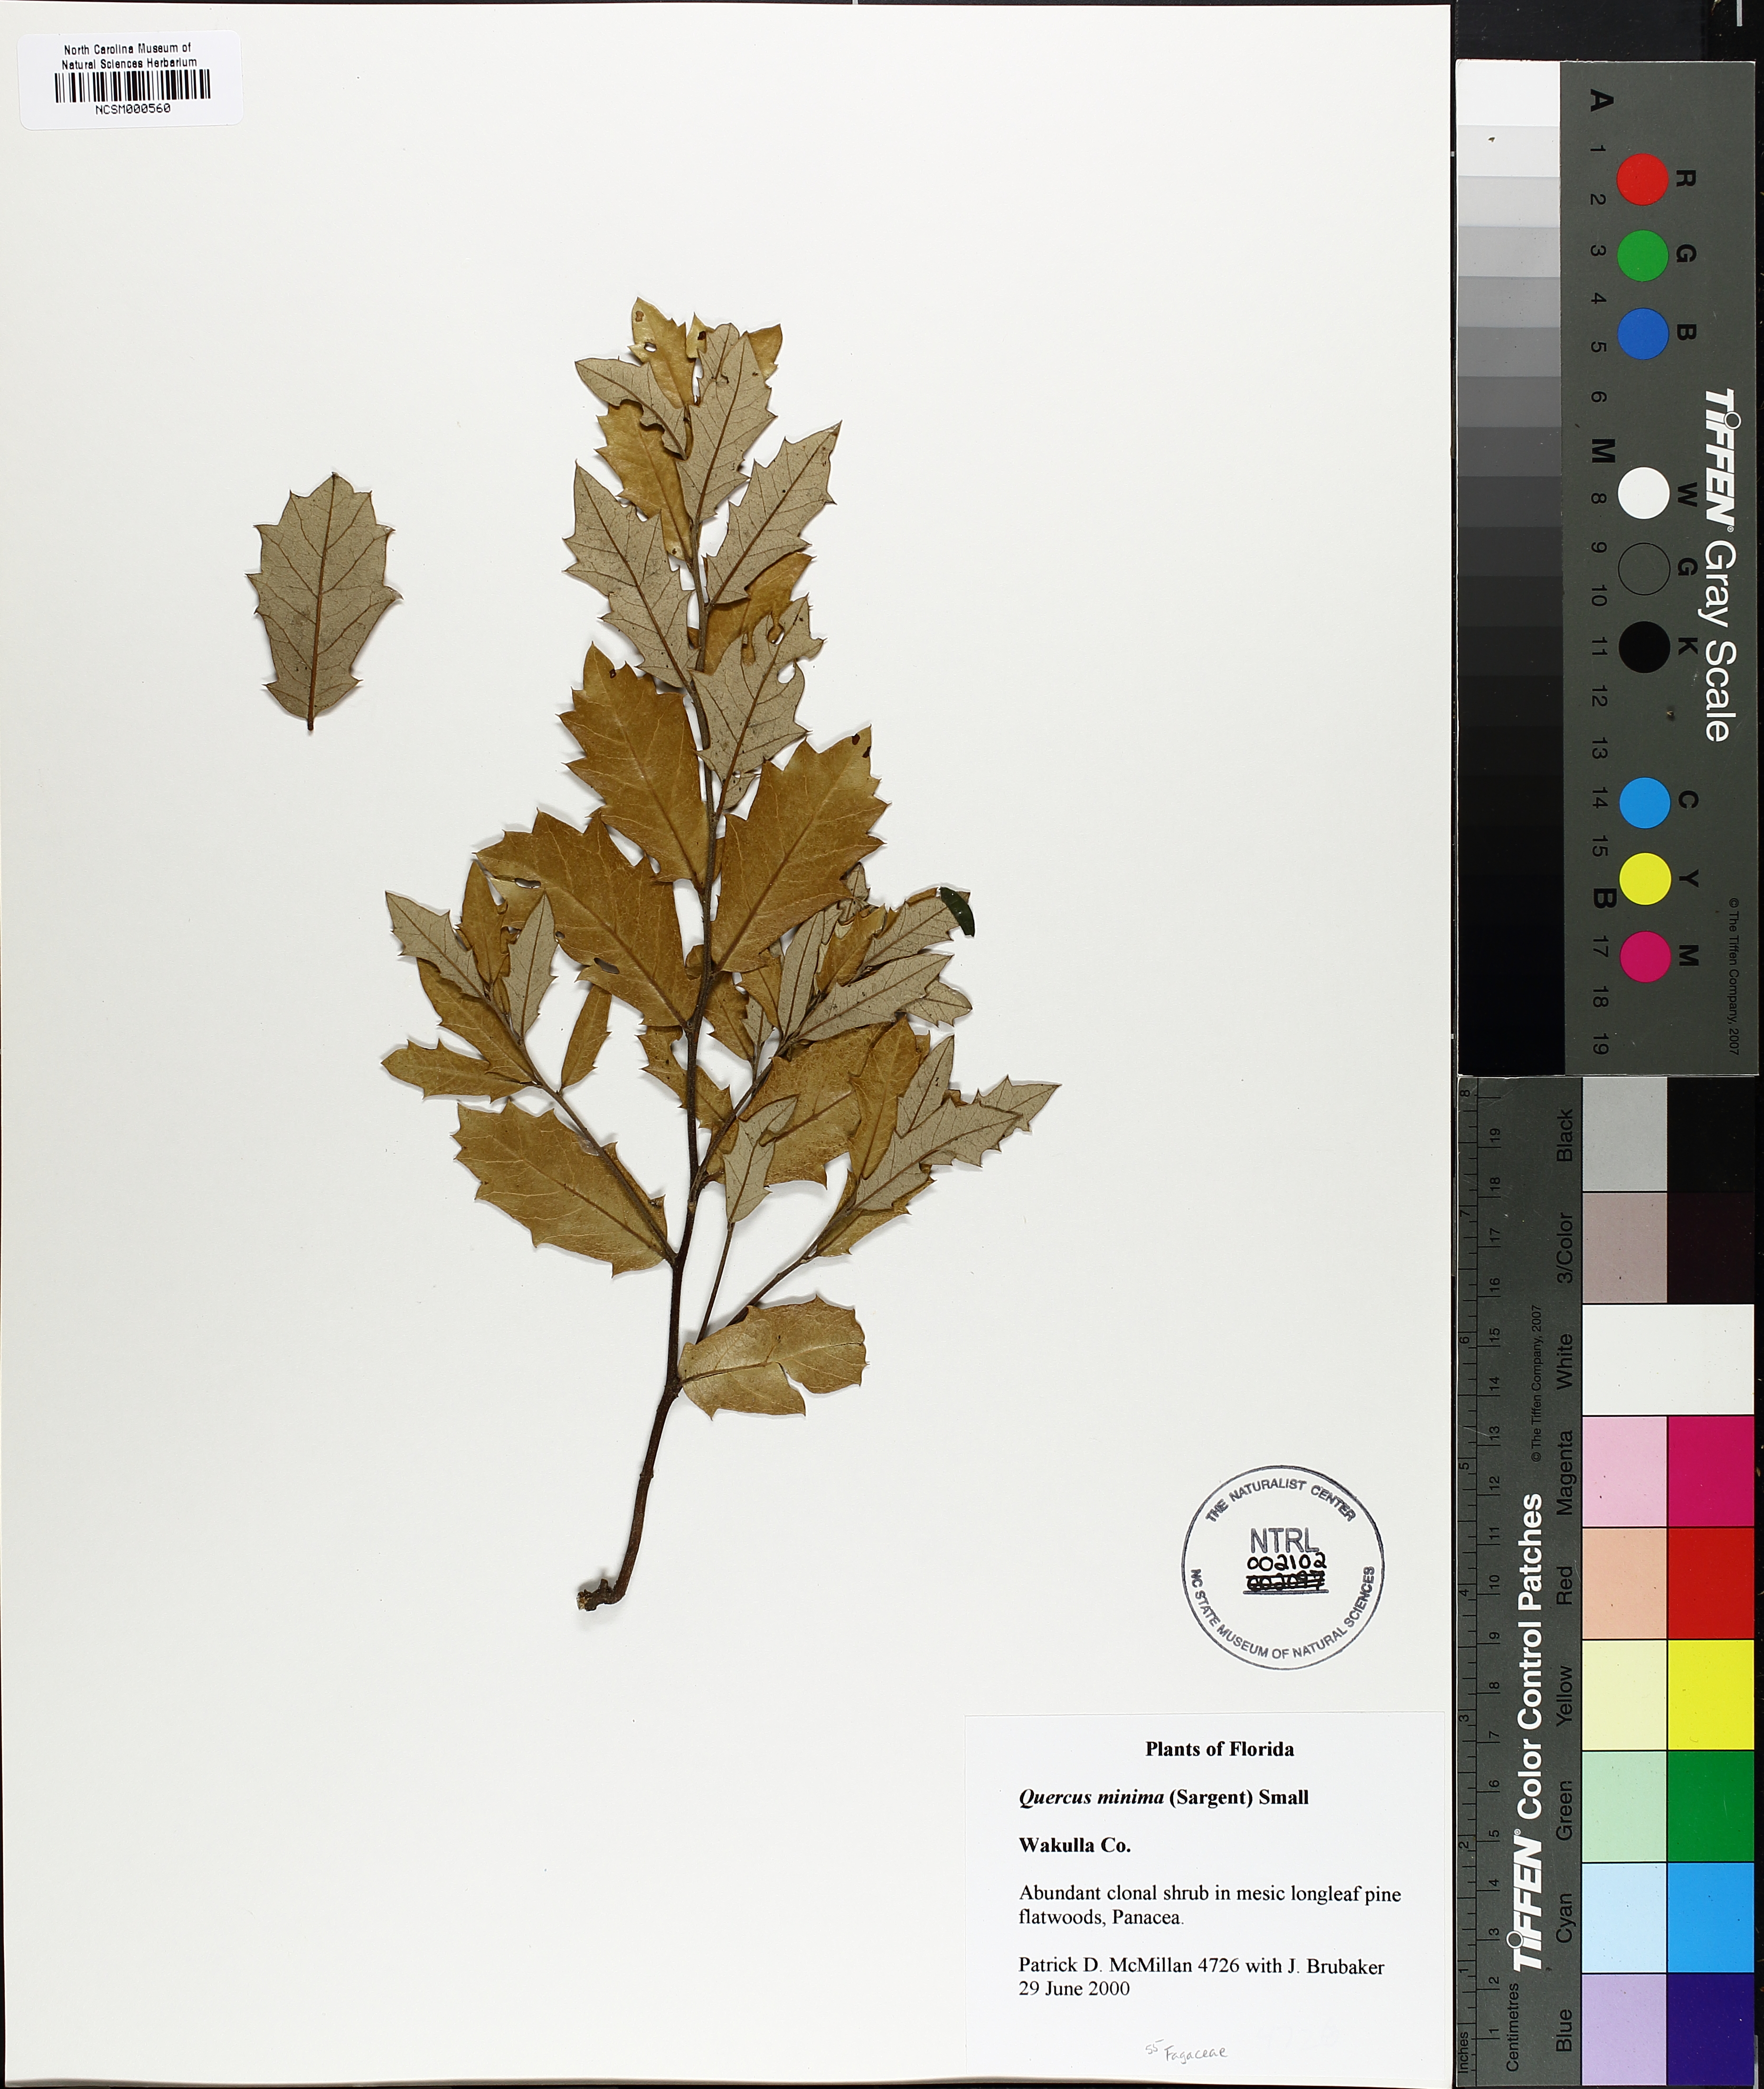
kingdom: Plantae
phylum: Tracheophyta
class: Magnoliopsida
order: Fagales
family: Fagaceae
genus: Quercus
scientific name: Quercus minima
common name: Dwarf live oak
